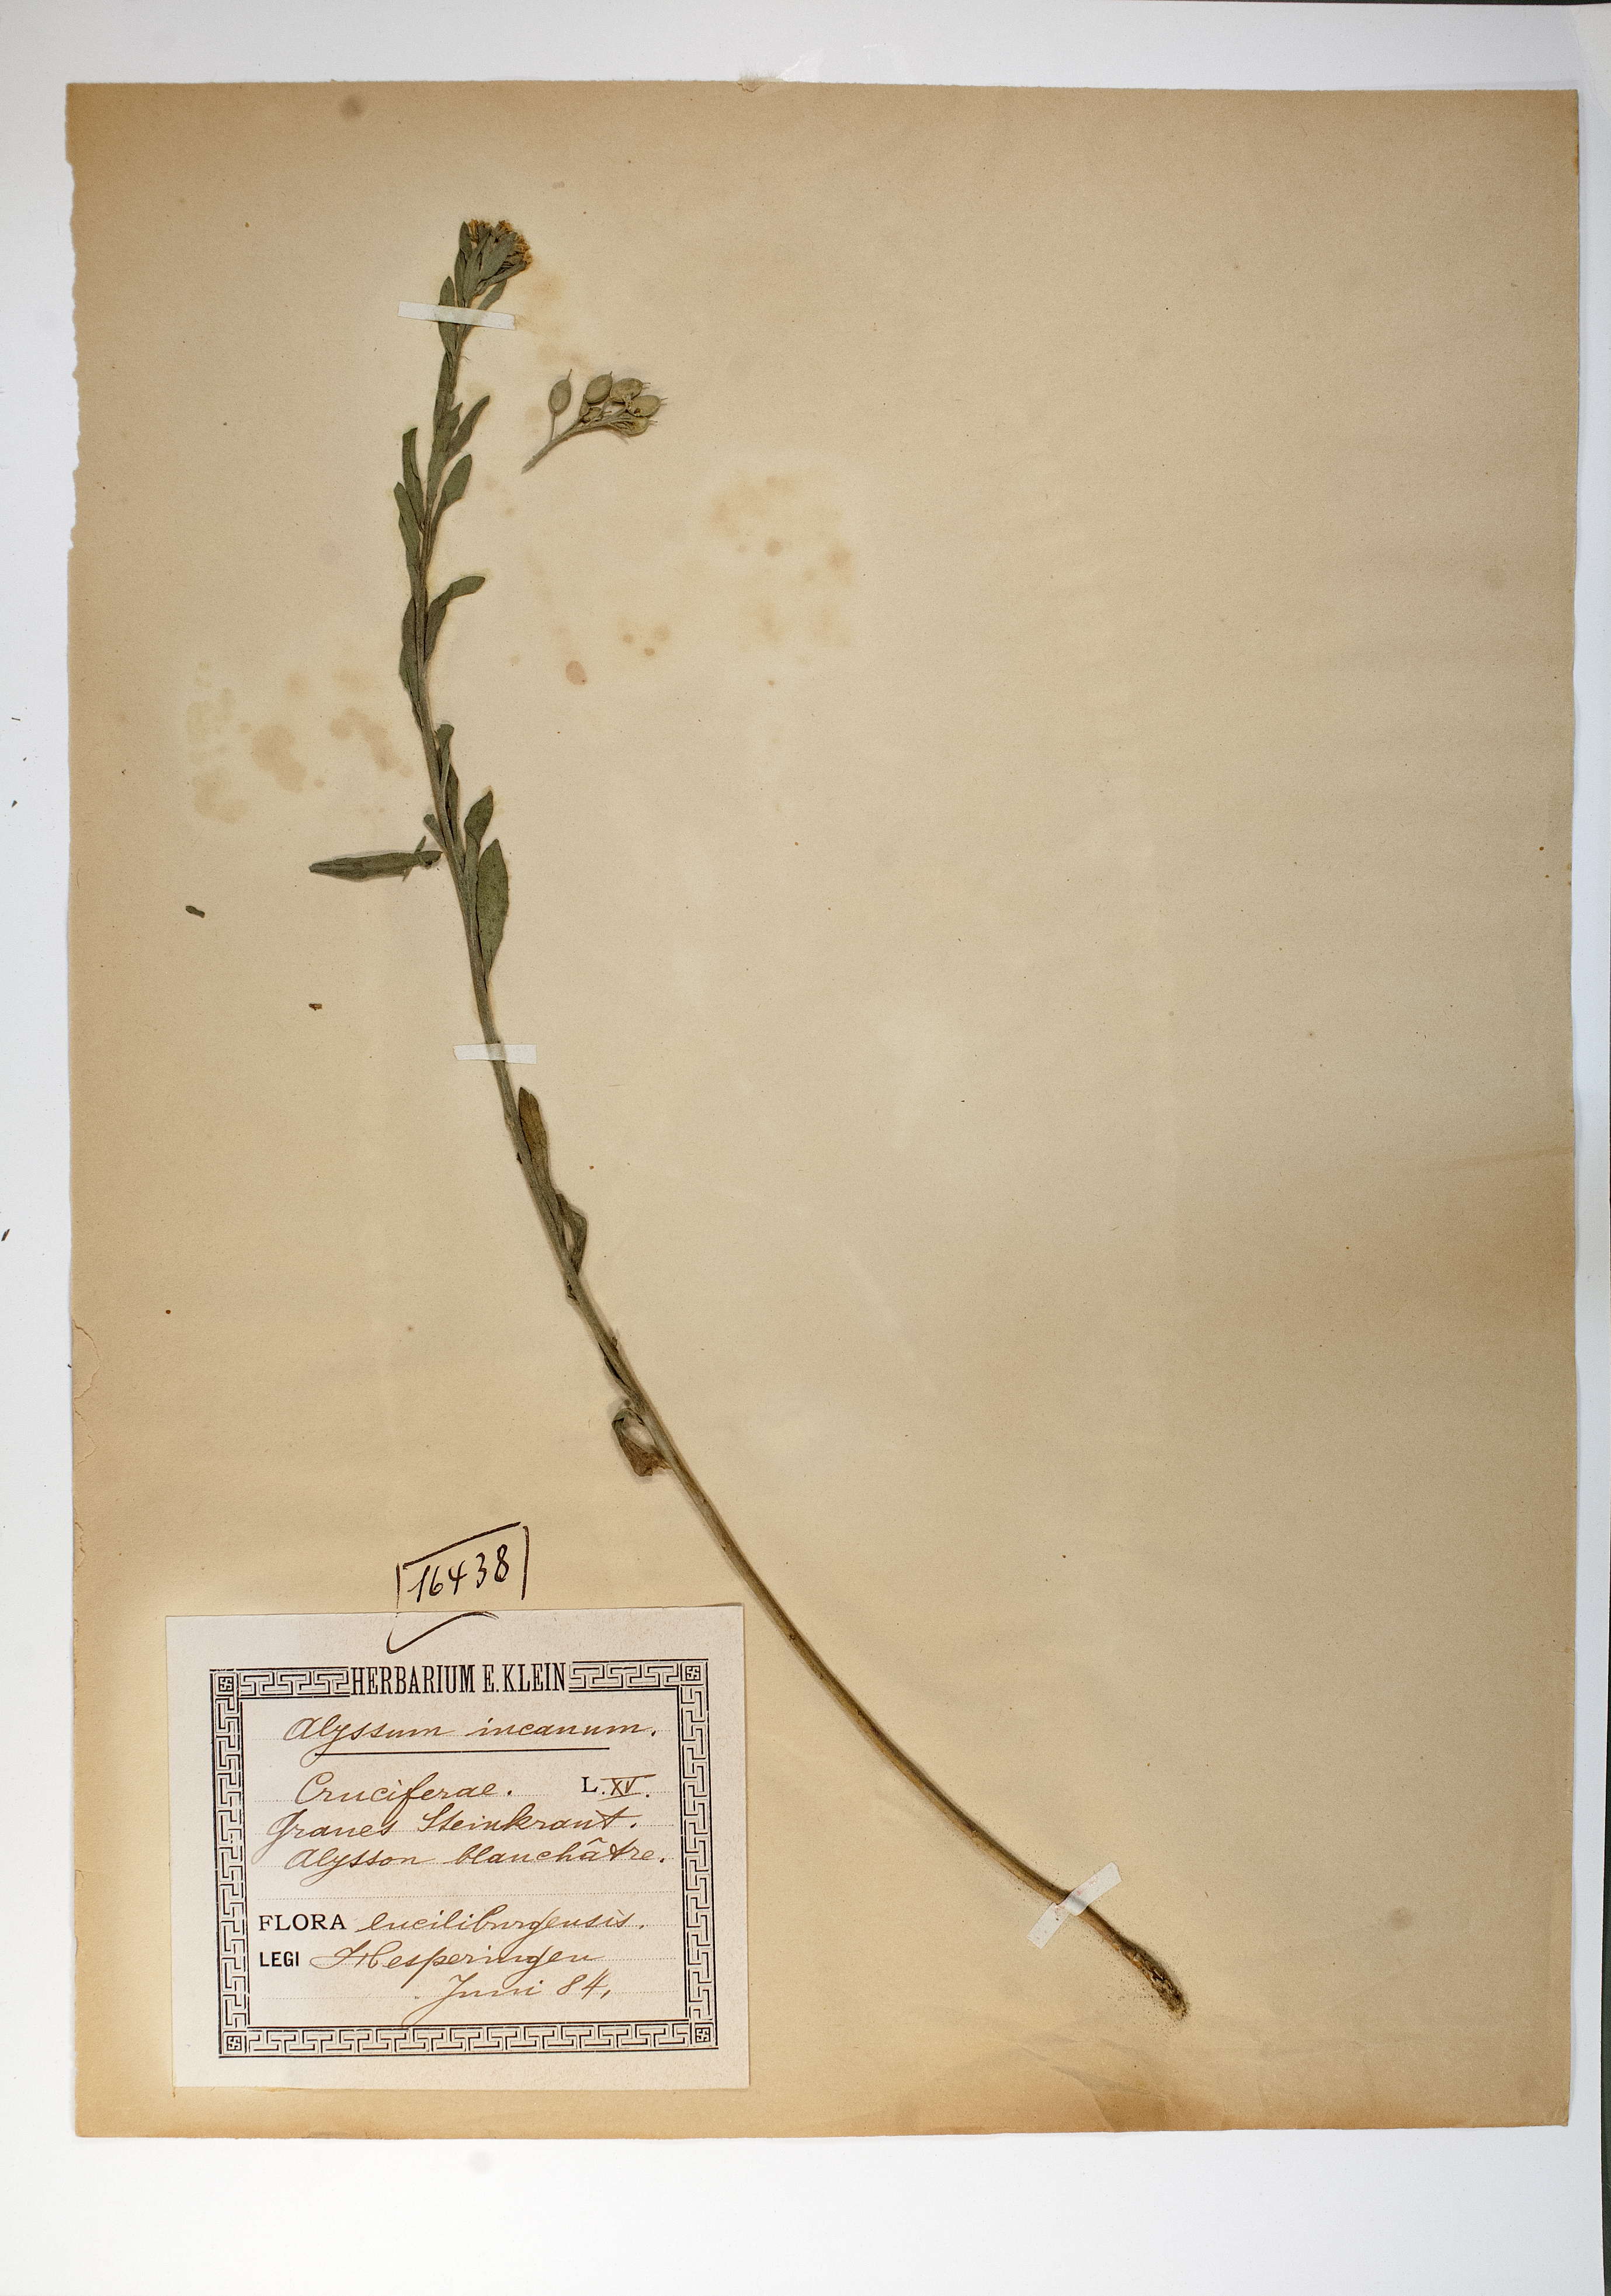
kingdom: Plantae
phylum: Tracheophyta
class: Magnoliopsida
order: Brassicales
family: Brassicaceae
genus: Berteroa
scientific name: Berteroa incana
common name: Hoary alison
